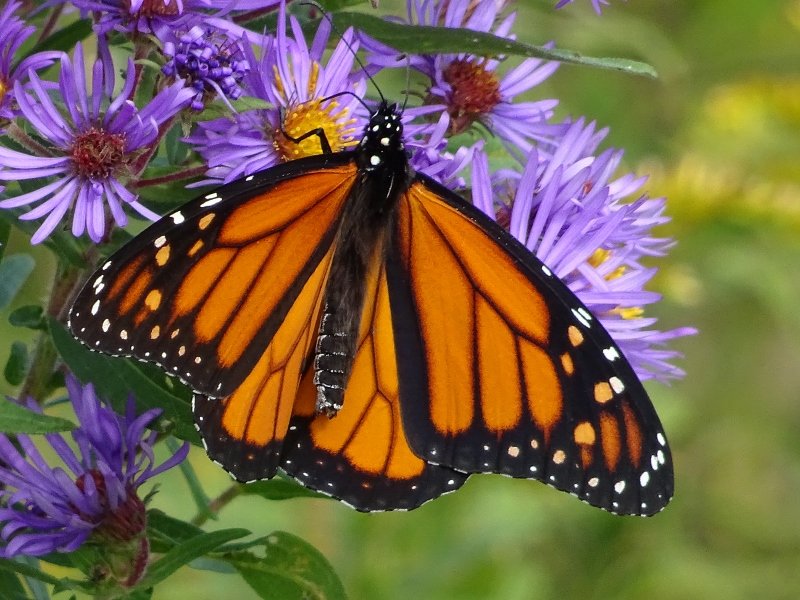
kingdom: Animalia
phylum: Arthropoda
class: Insecta
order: Lepidoptera
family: Nymphalidae
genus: Danaus
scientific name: Danaus plexippus
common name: Monarch
